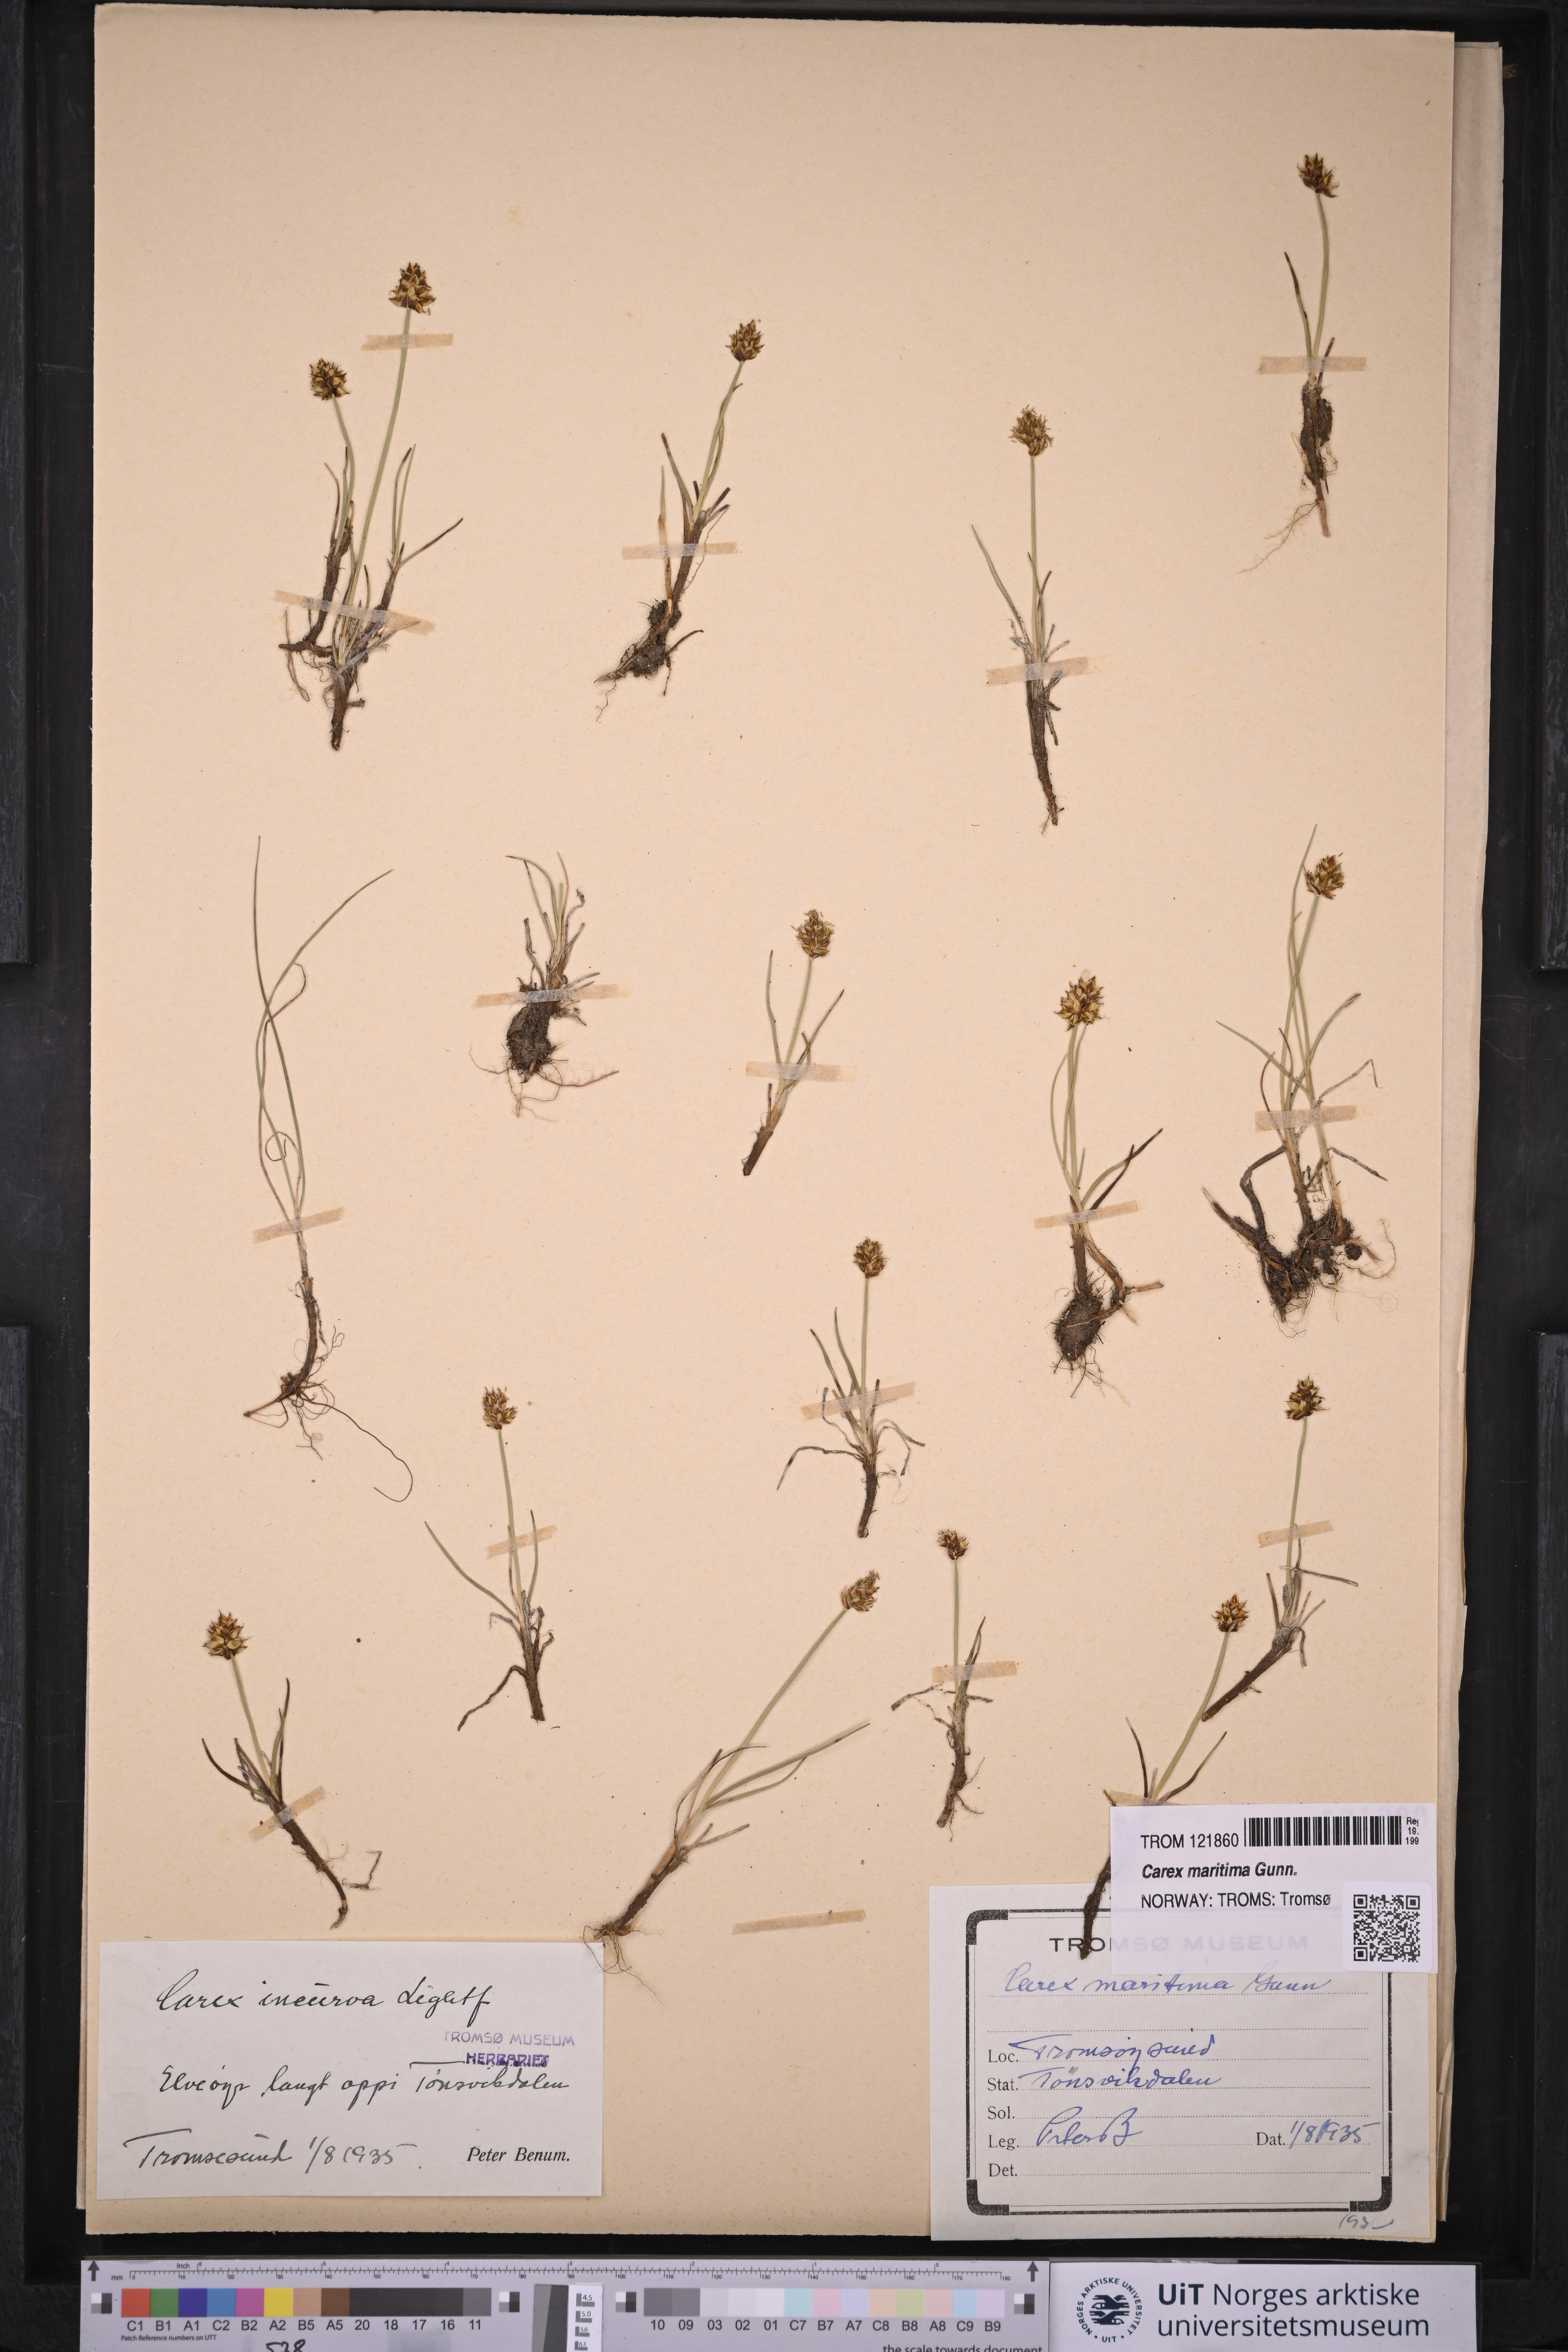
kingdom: Plantae
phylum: Tracheophyta
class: Liliopsida
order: Poales
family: Cyperaceae
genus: Carex
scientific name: Carex maritima
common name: Curved sedge
